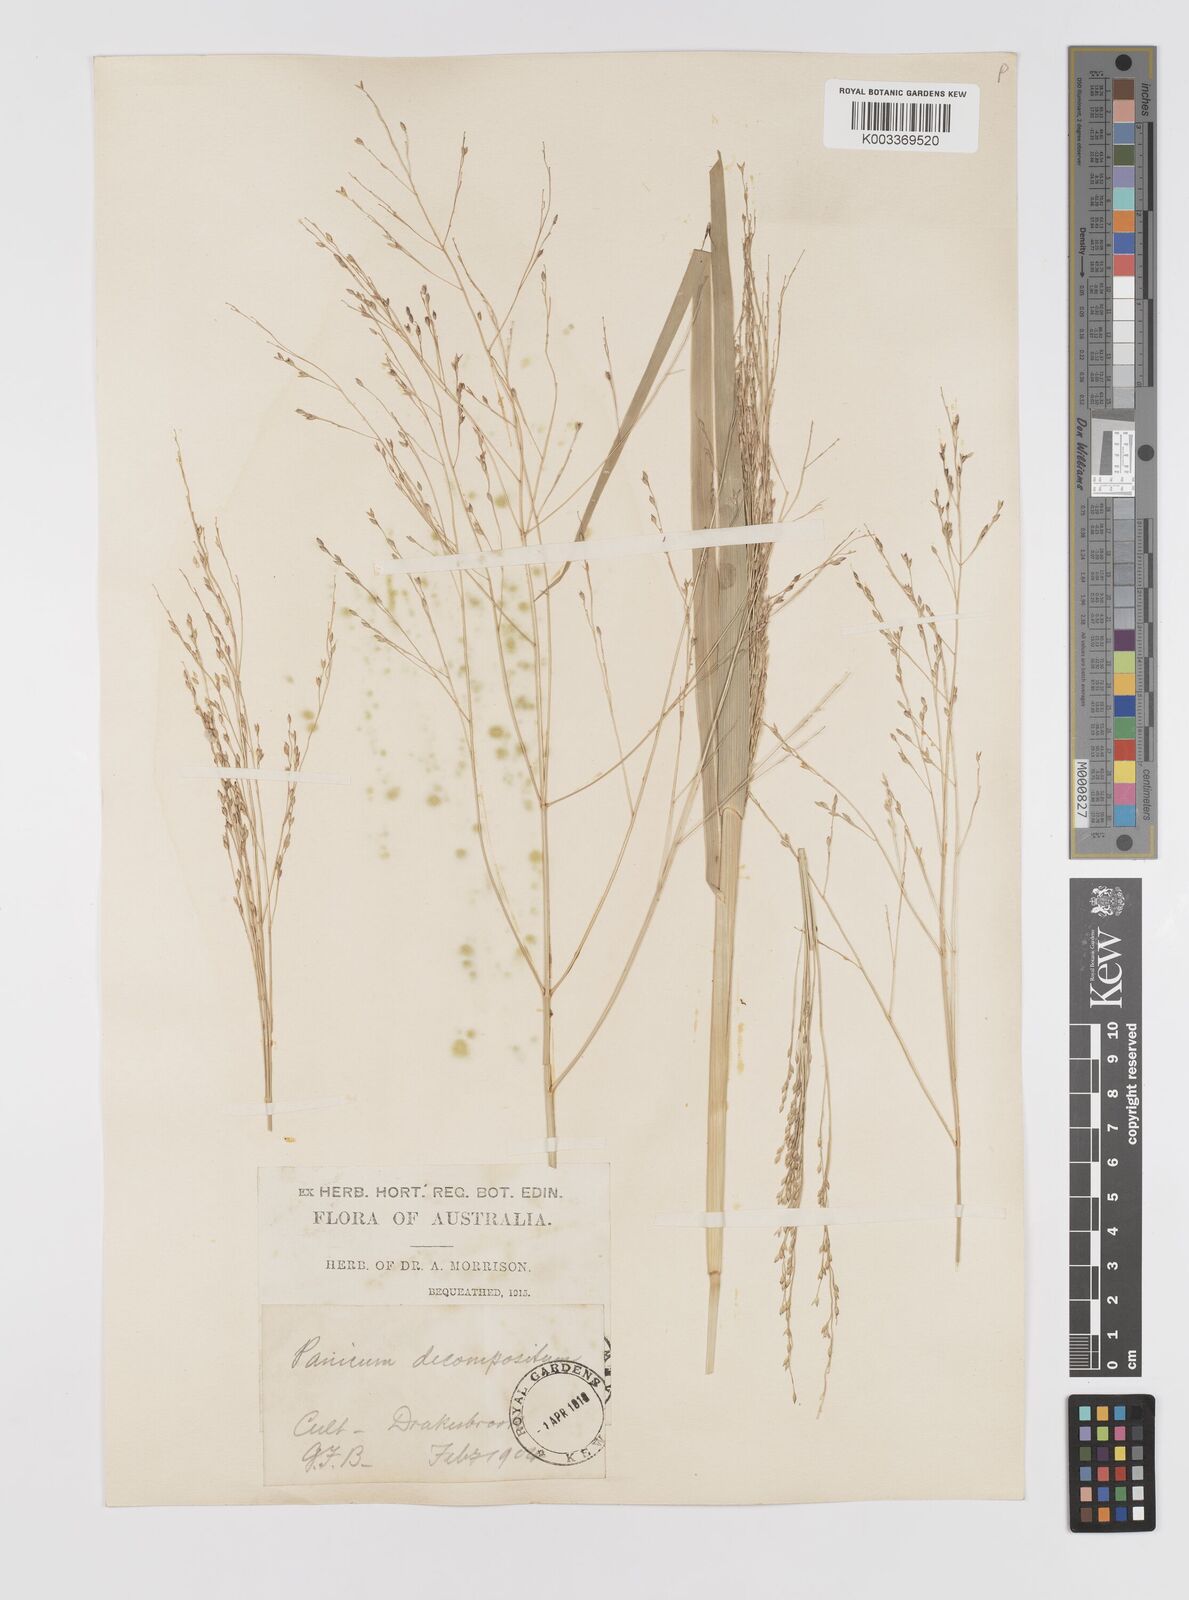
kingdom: Plantae
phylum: Tracheophyta
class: Liliopsida
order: Poales
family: Poaceae
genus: Panicum
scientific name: Panicum decompositum
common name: Australian millet
